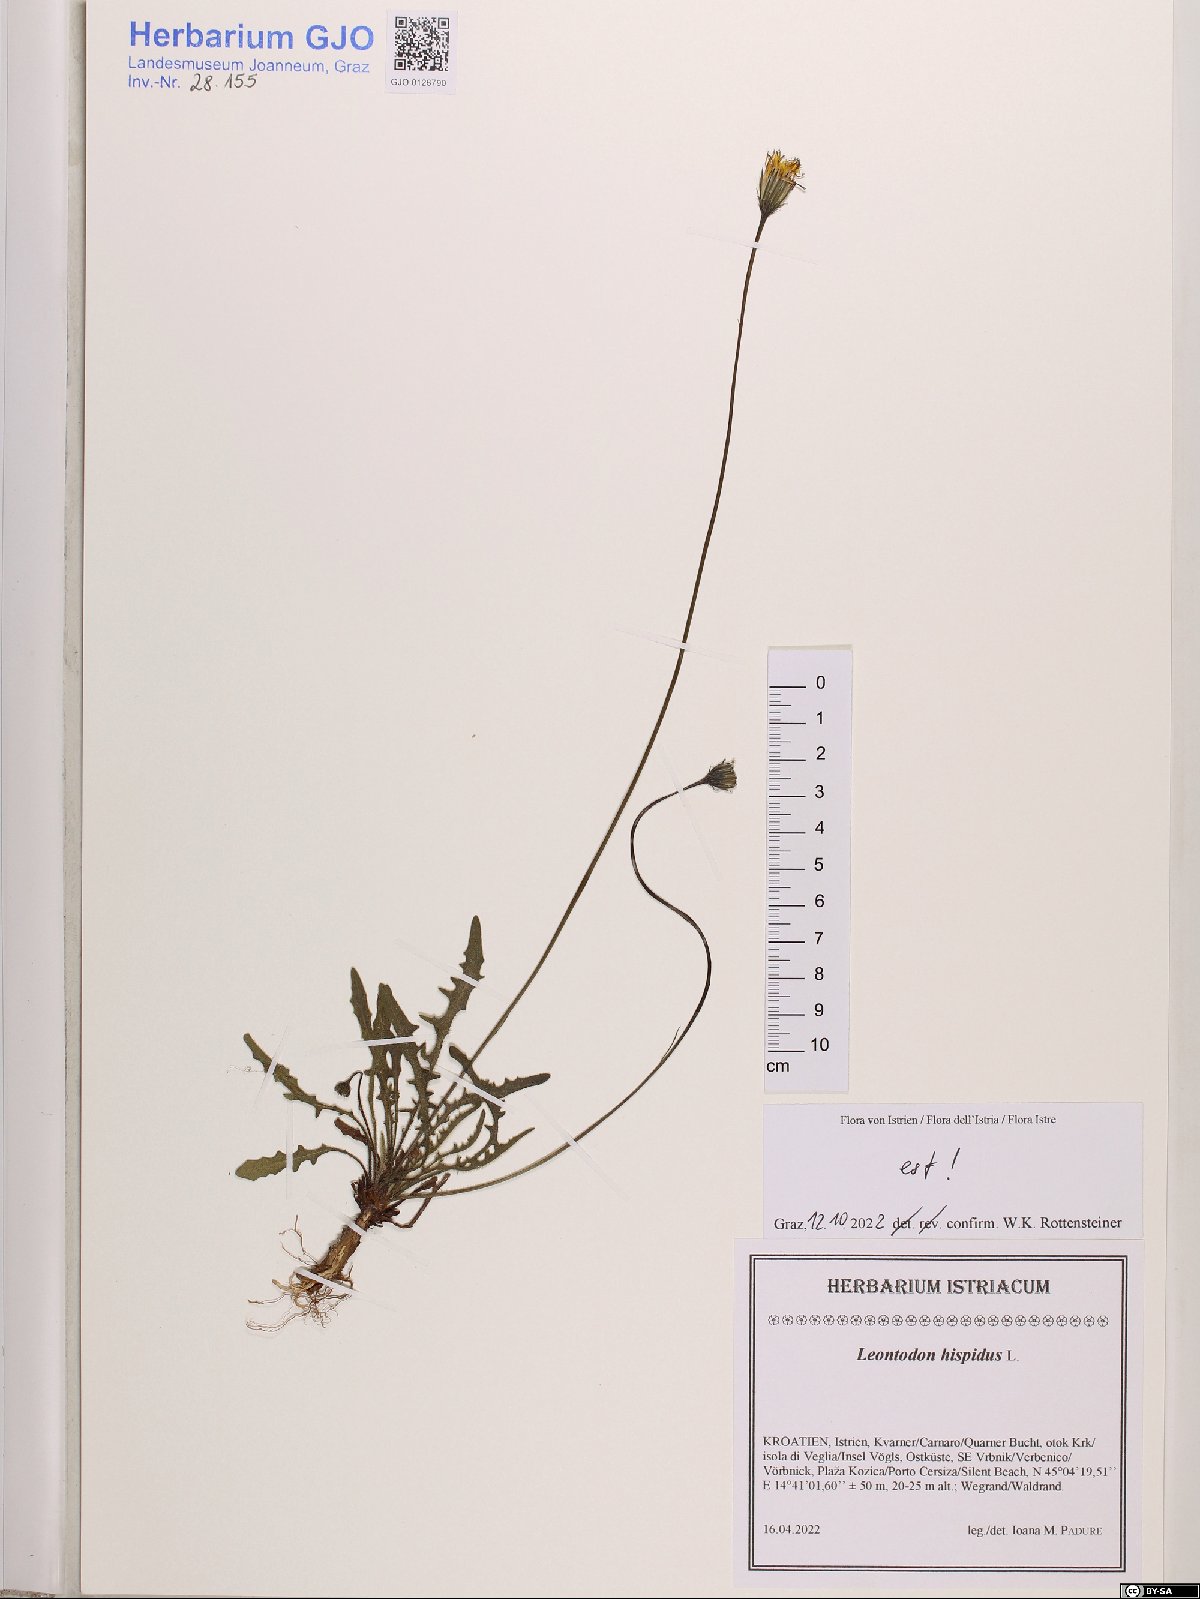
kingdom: Plantae
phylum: Tracheophyta
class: Magnoliopsida
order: Asterales
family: Asteraceae
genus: Leontodon
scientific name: Leontodon hispidus
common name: Rough hawkbit
